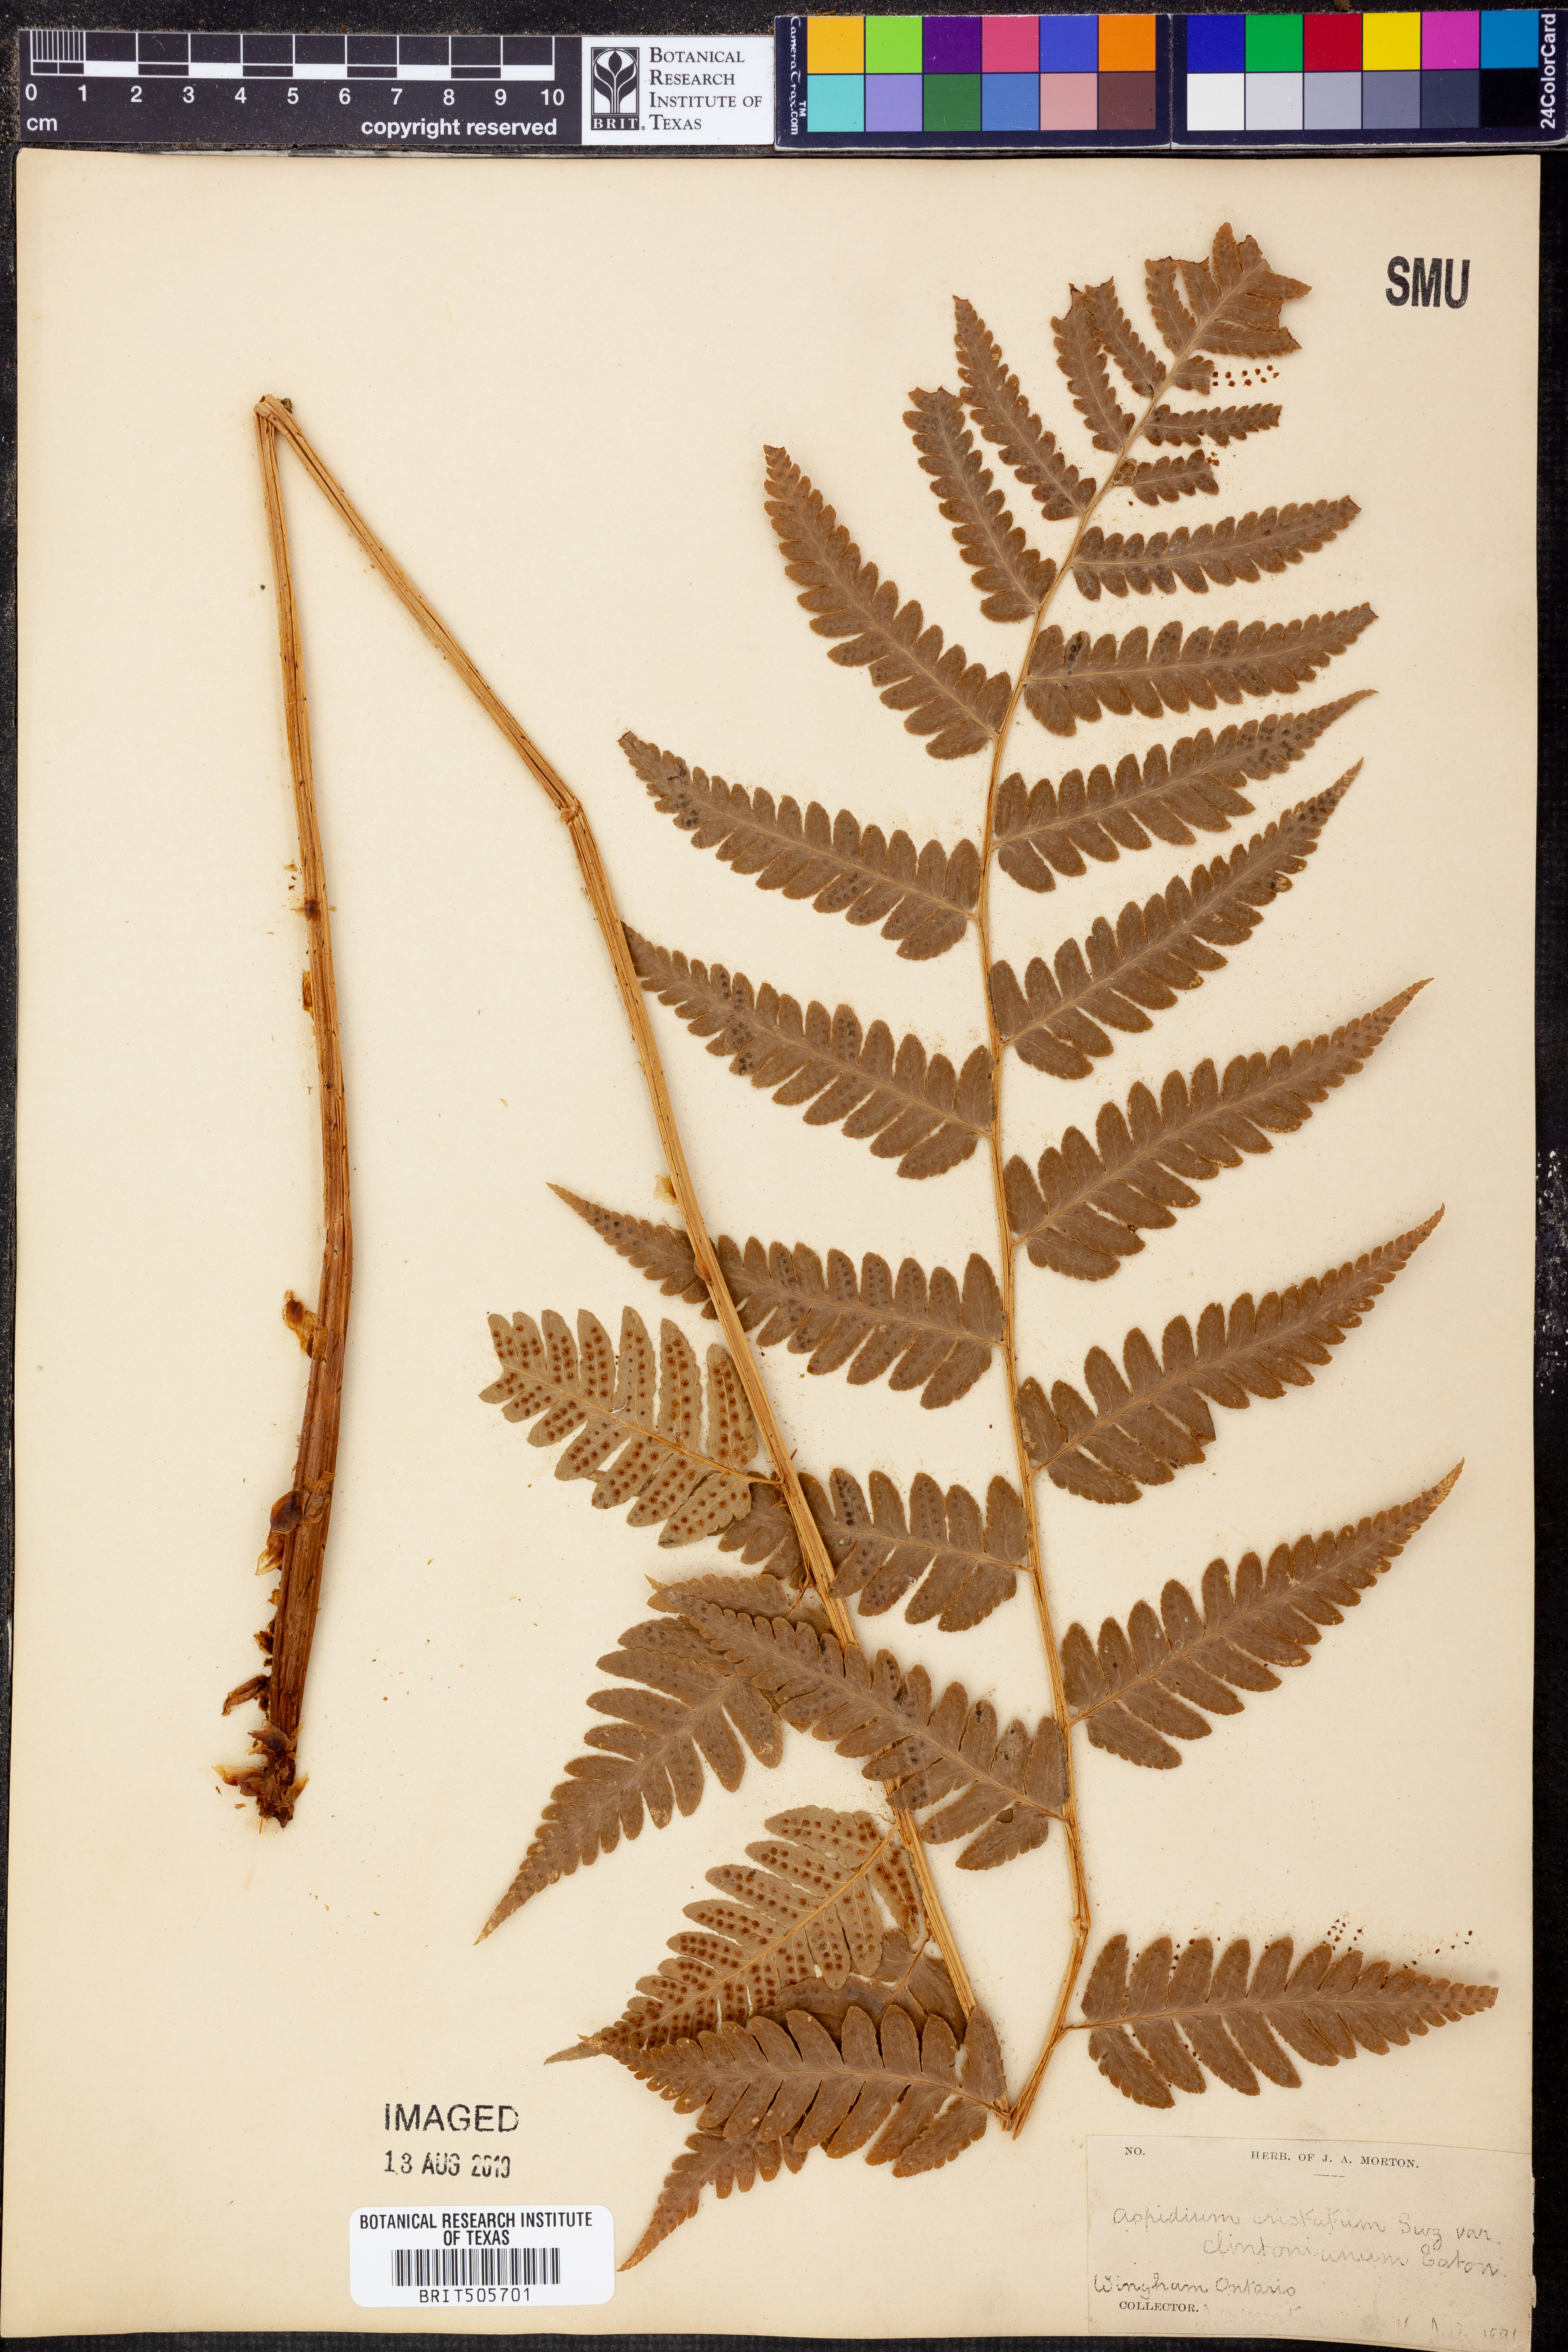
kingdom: Plantae
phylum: Tracheophyta
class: Polypodiopsida
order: Polypodiales
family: Dryopteridaceae
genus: Dryopteris
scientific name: Dryopteris cristata
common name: Crested wood fern
